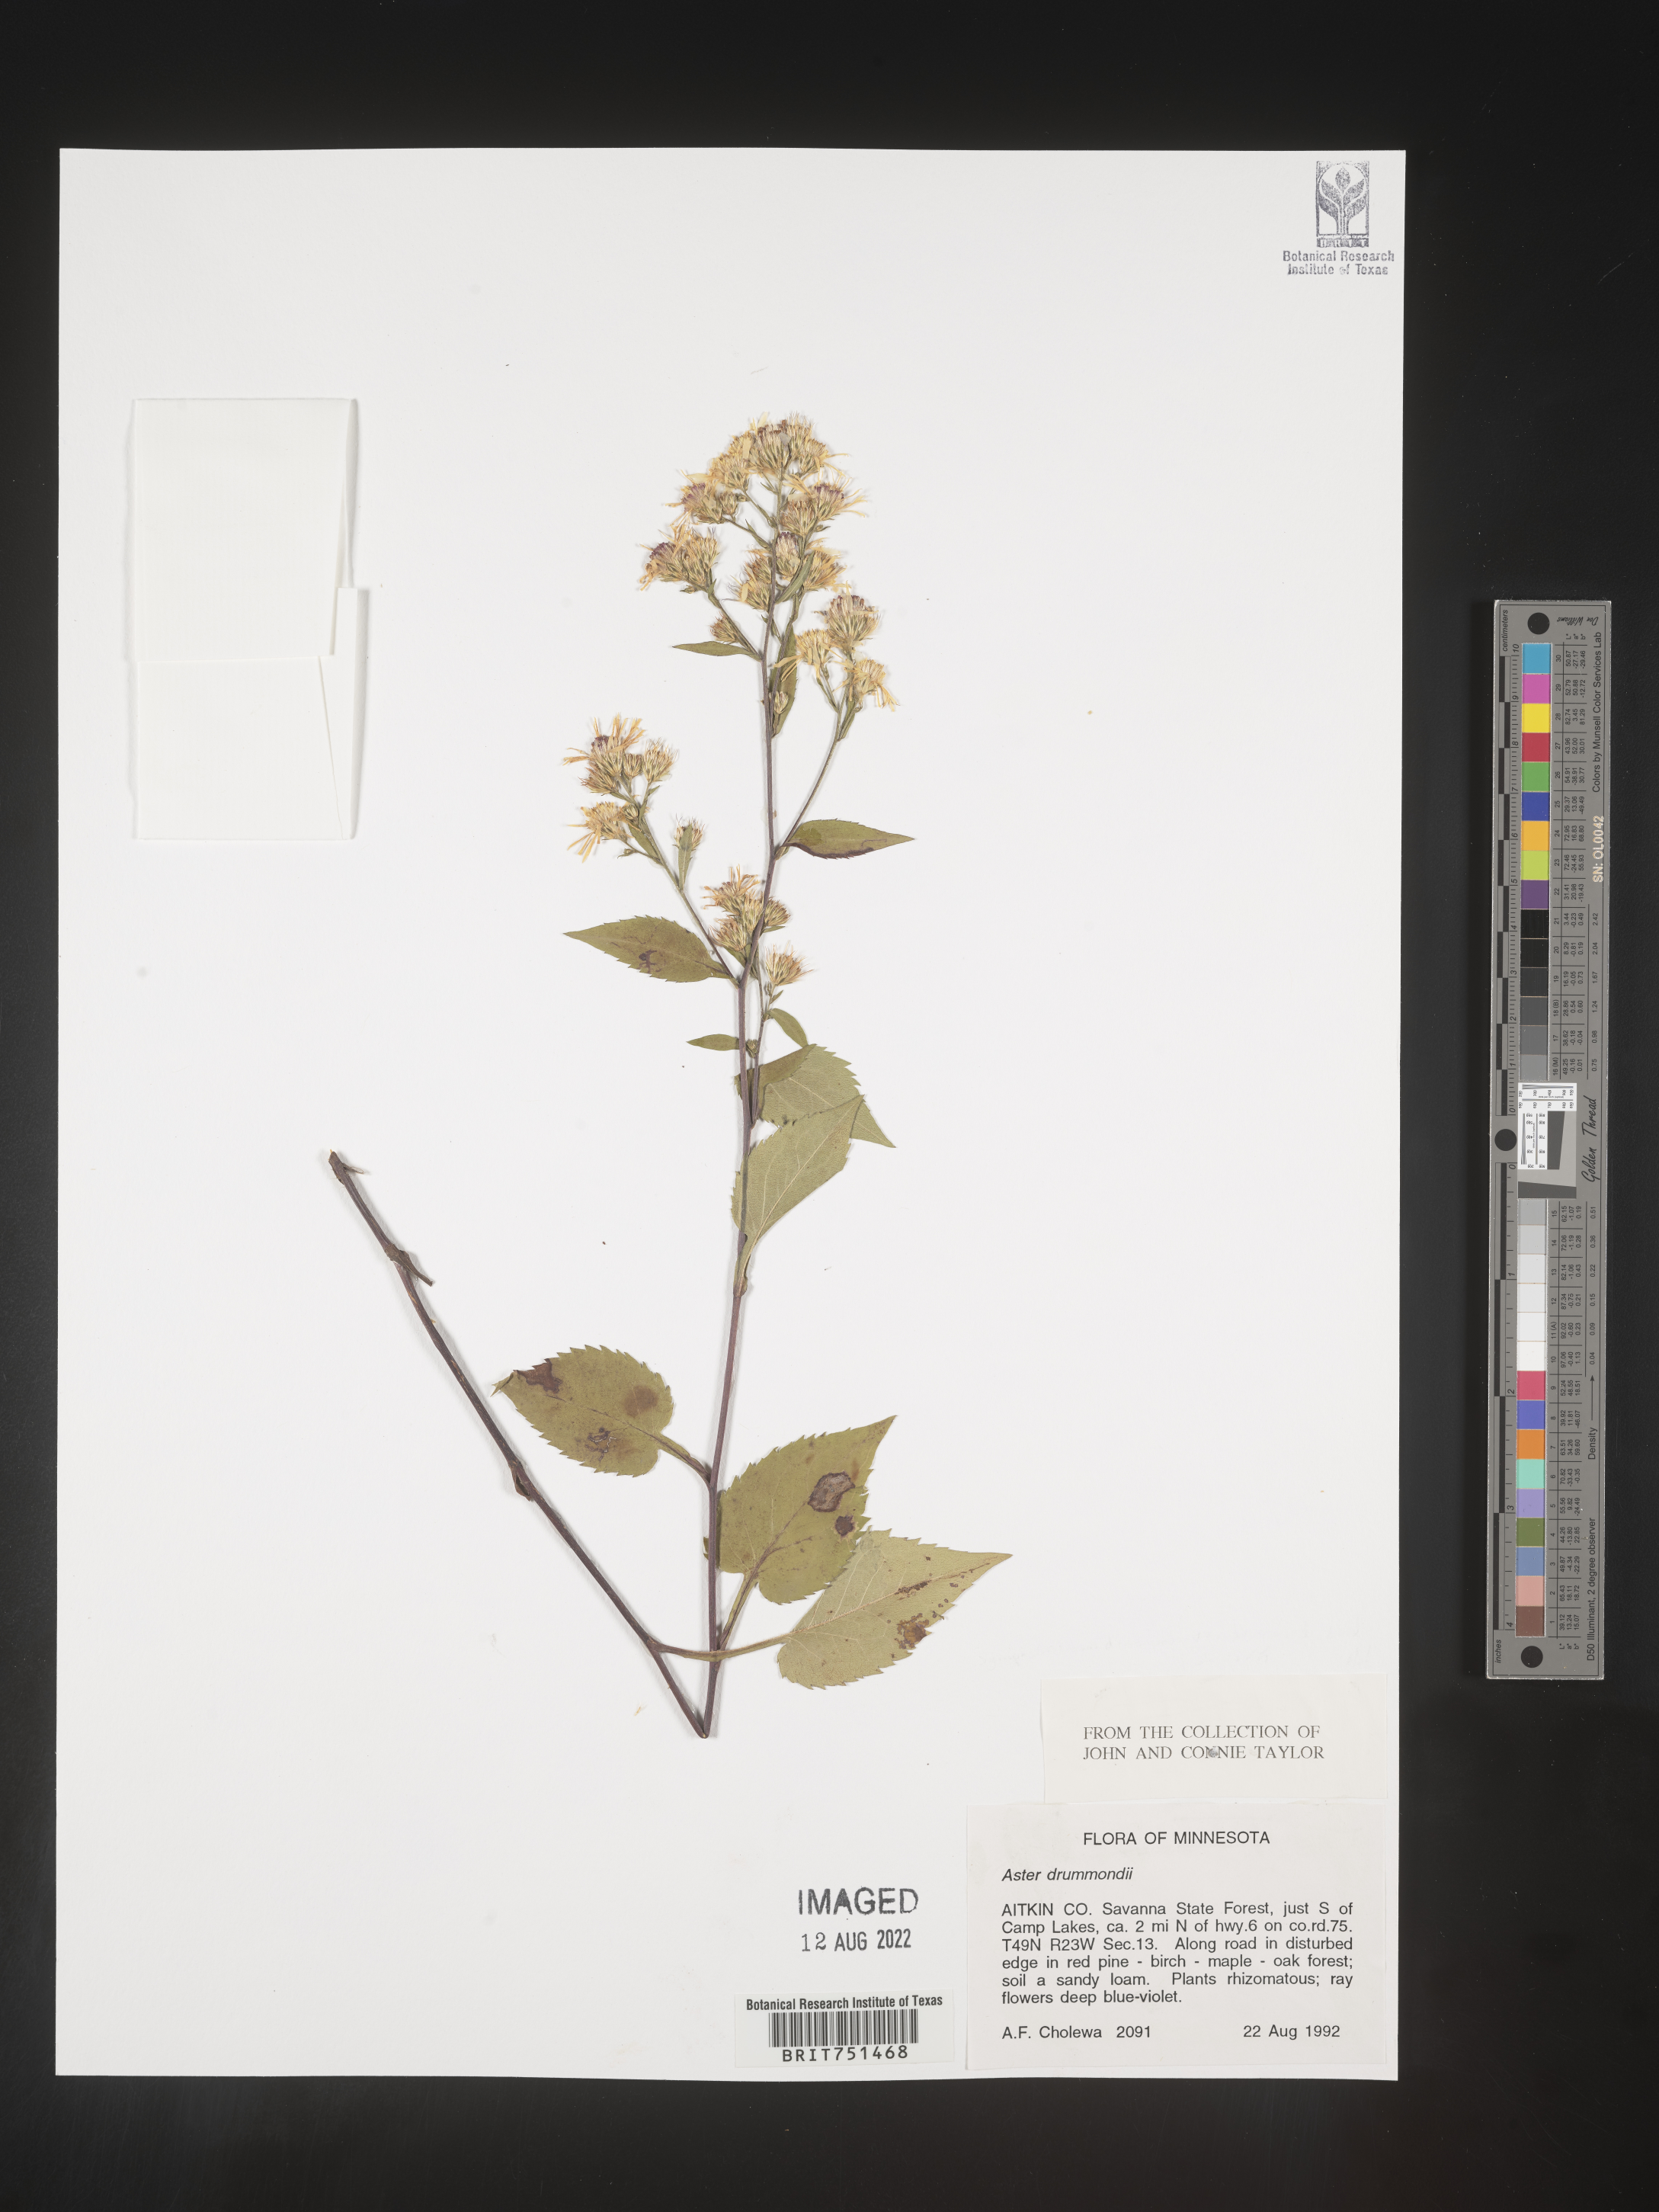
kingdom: Plantae
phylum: Tracheophyta
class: Magnoliopsida
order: Asterales
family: Asteraceae
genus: Symphyotrichum
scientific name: Symphyotrichum ciliolatum
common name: Fringed blue aster
